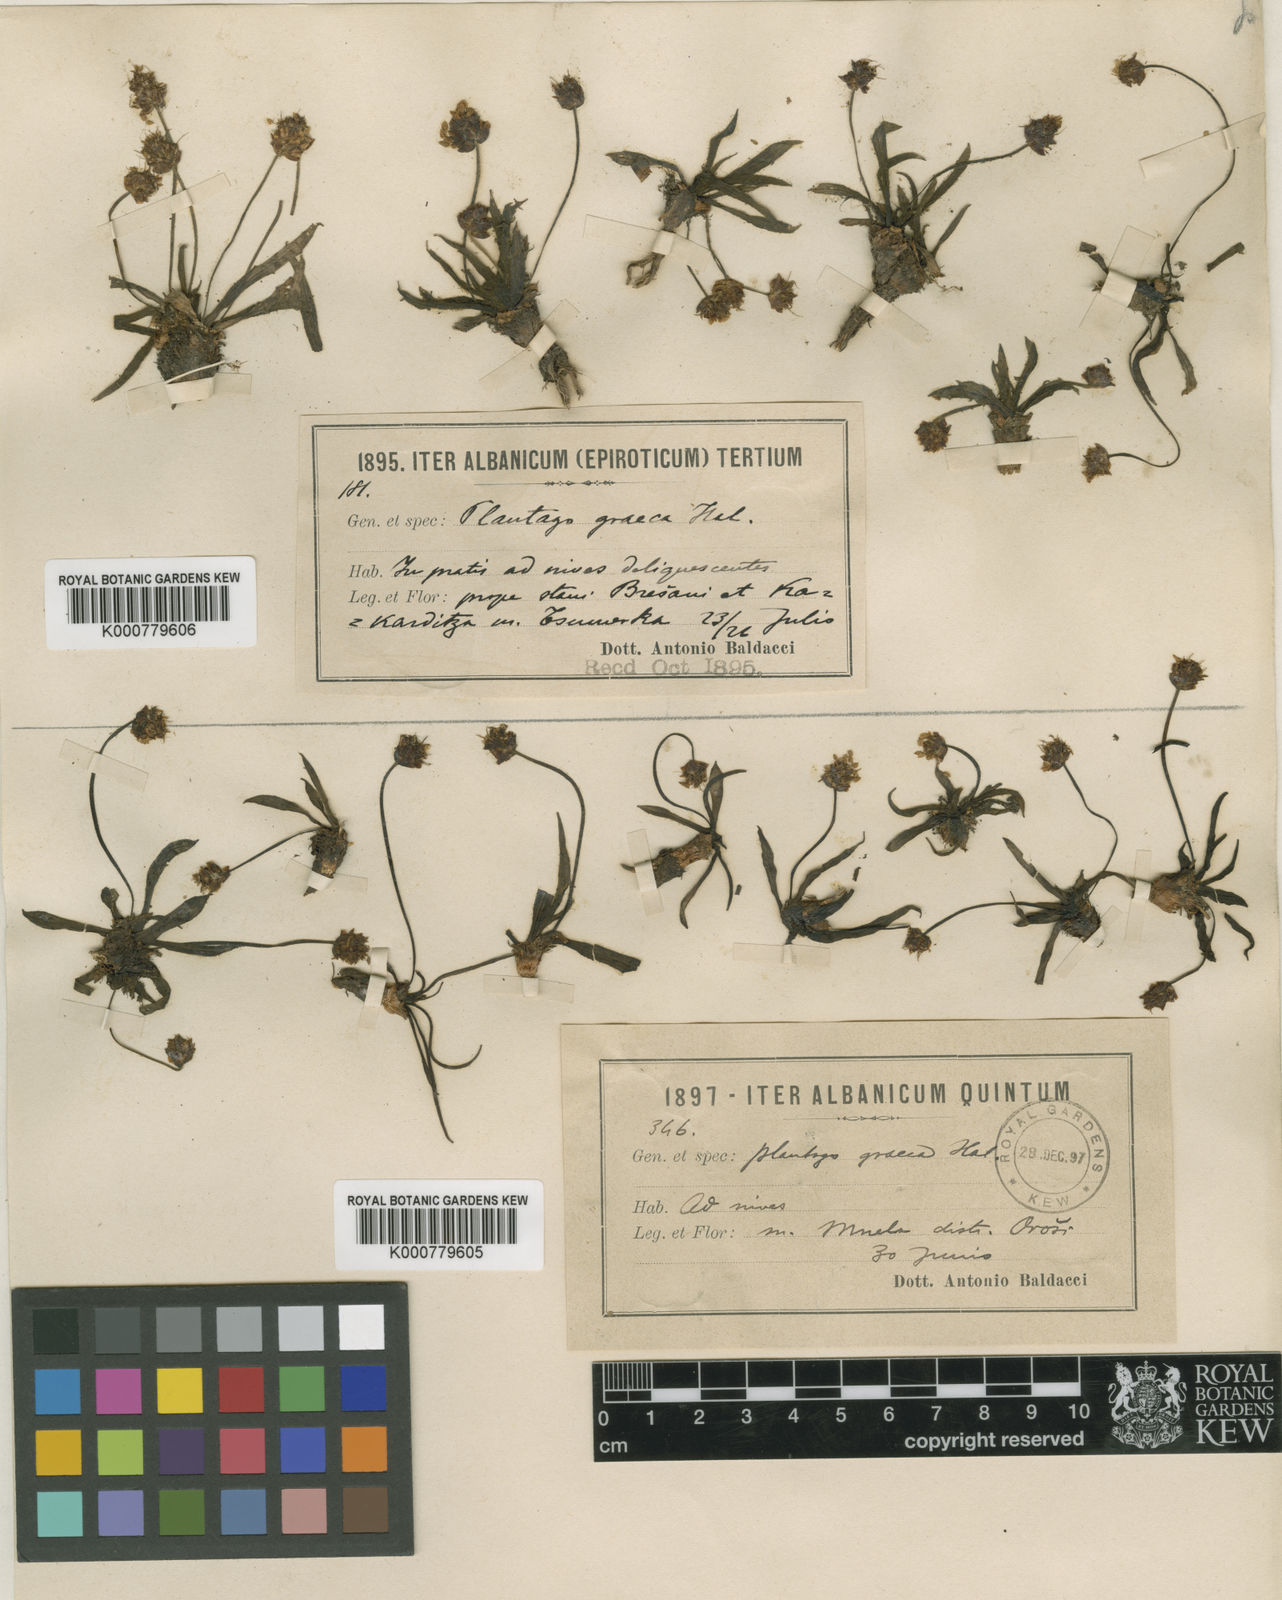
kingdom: Plantae
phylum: Tracheophyta
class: Magnoliopsida
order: Lamiales
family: Plantaginaceae
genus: Plantago
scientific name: Plantago atrata
